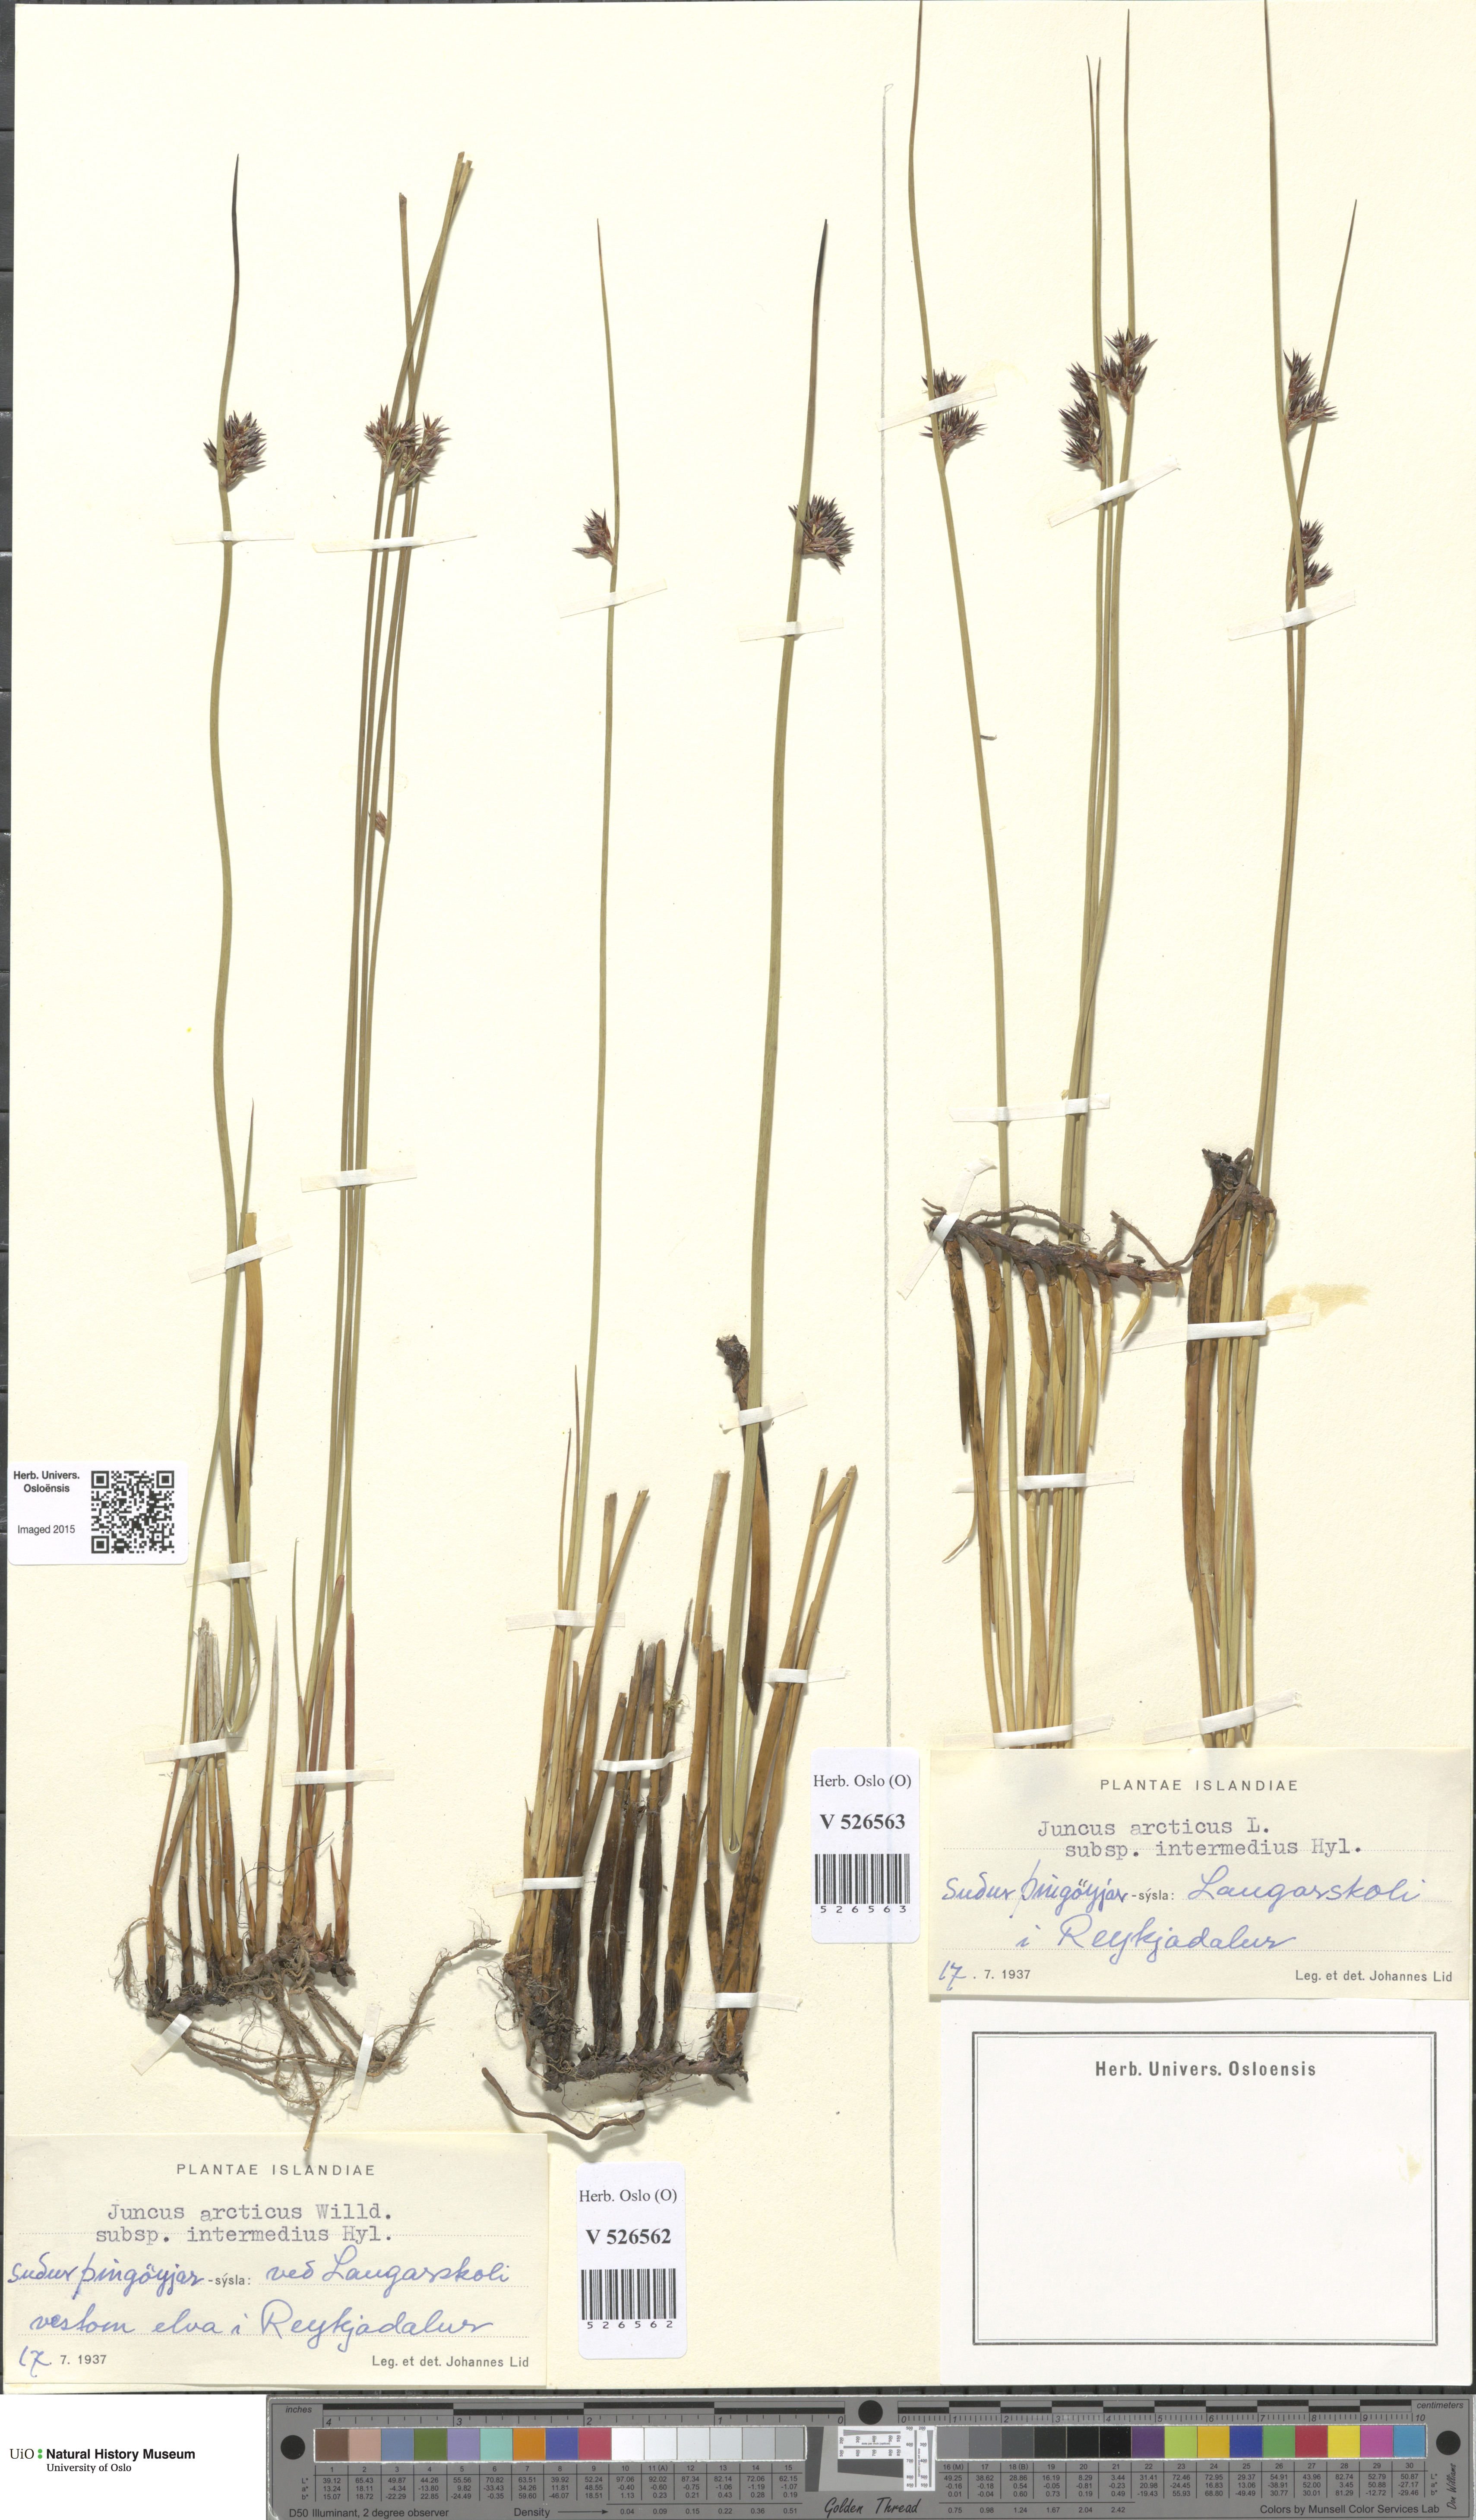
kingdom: Plantae
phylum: Tracheophyta
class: Liliopsida
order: Poales
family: Juncaceae
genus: Juncus
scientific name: Juncus arcticus
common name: Arctic rush
